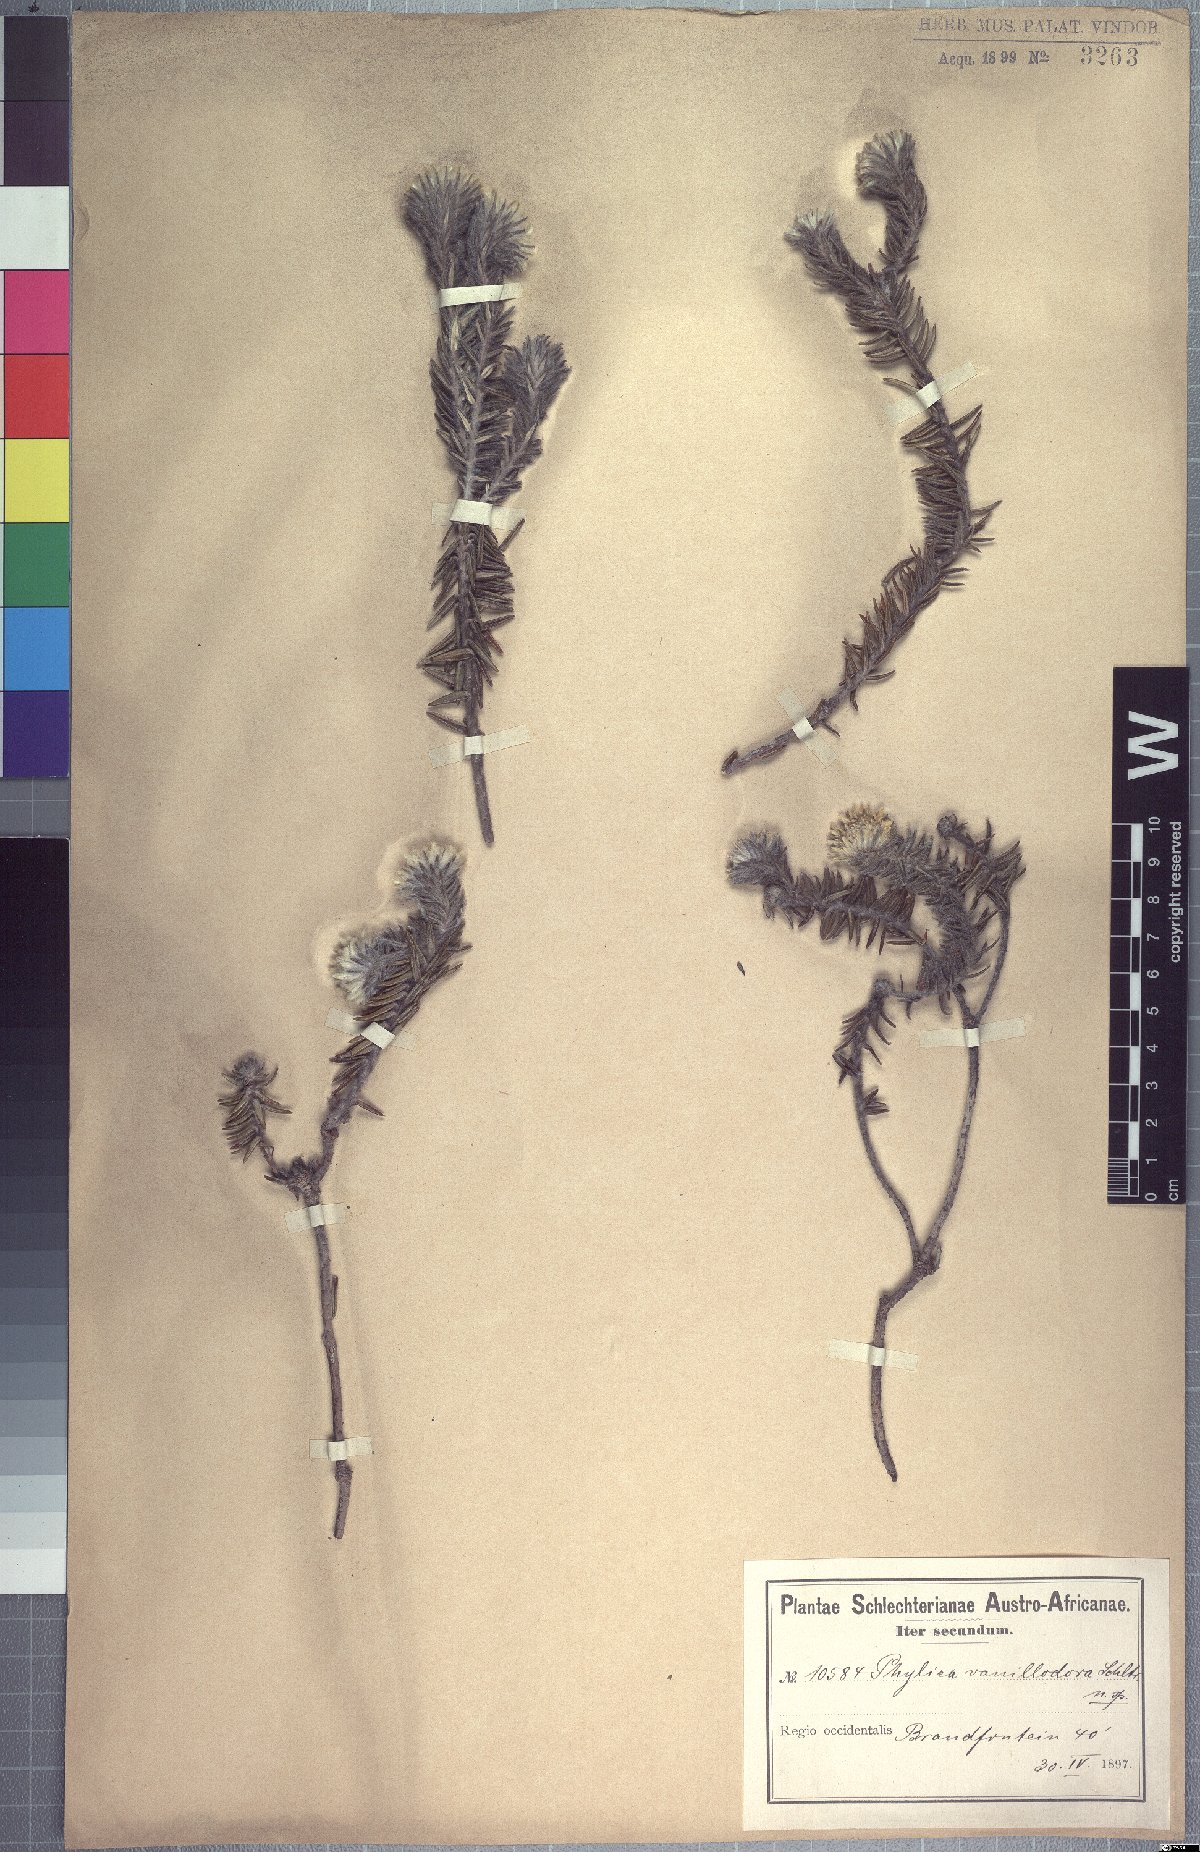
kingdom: Plantae
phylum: Tracheophyta
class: Magnoliopsida
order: Rosales
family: Rhamnaceae
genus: Phylica
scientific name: Phylica amoena
